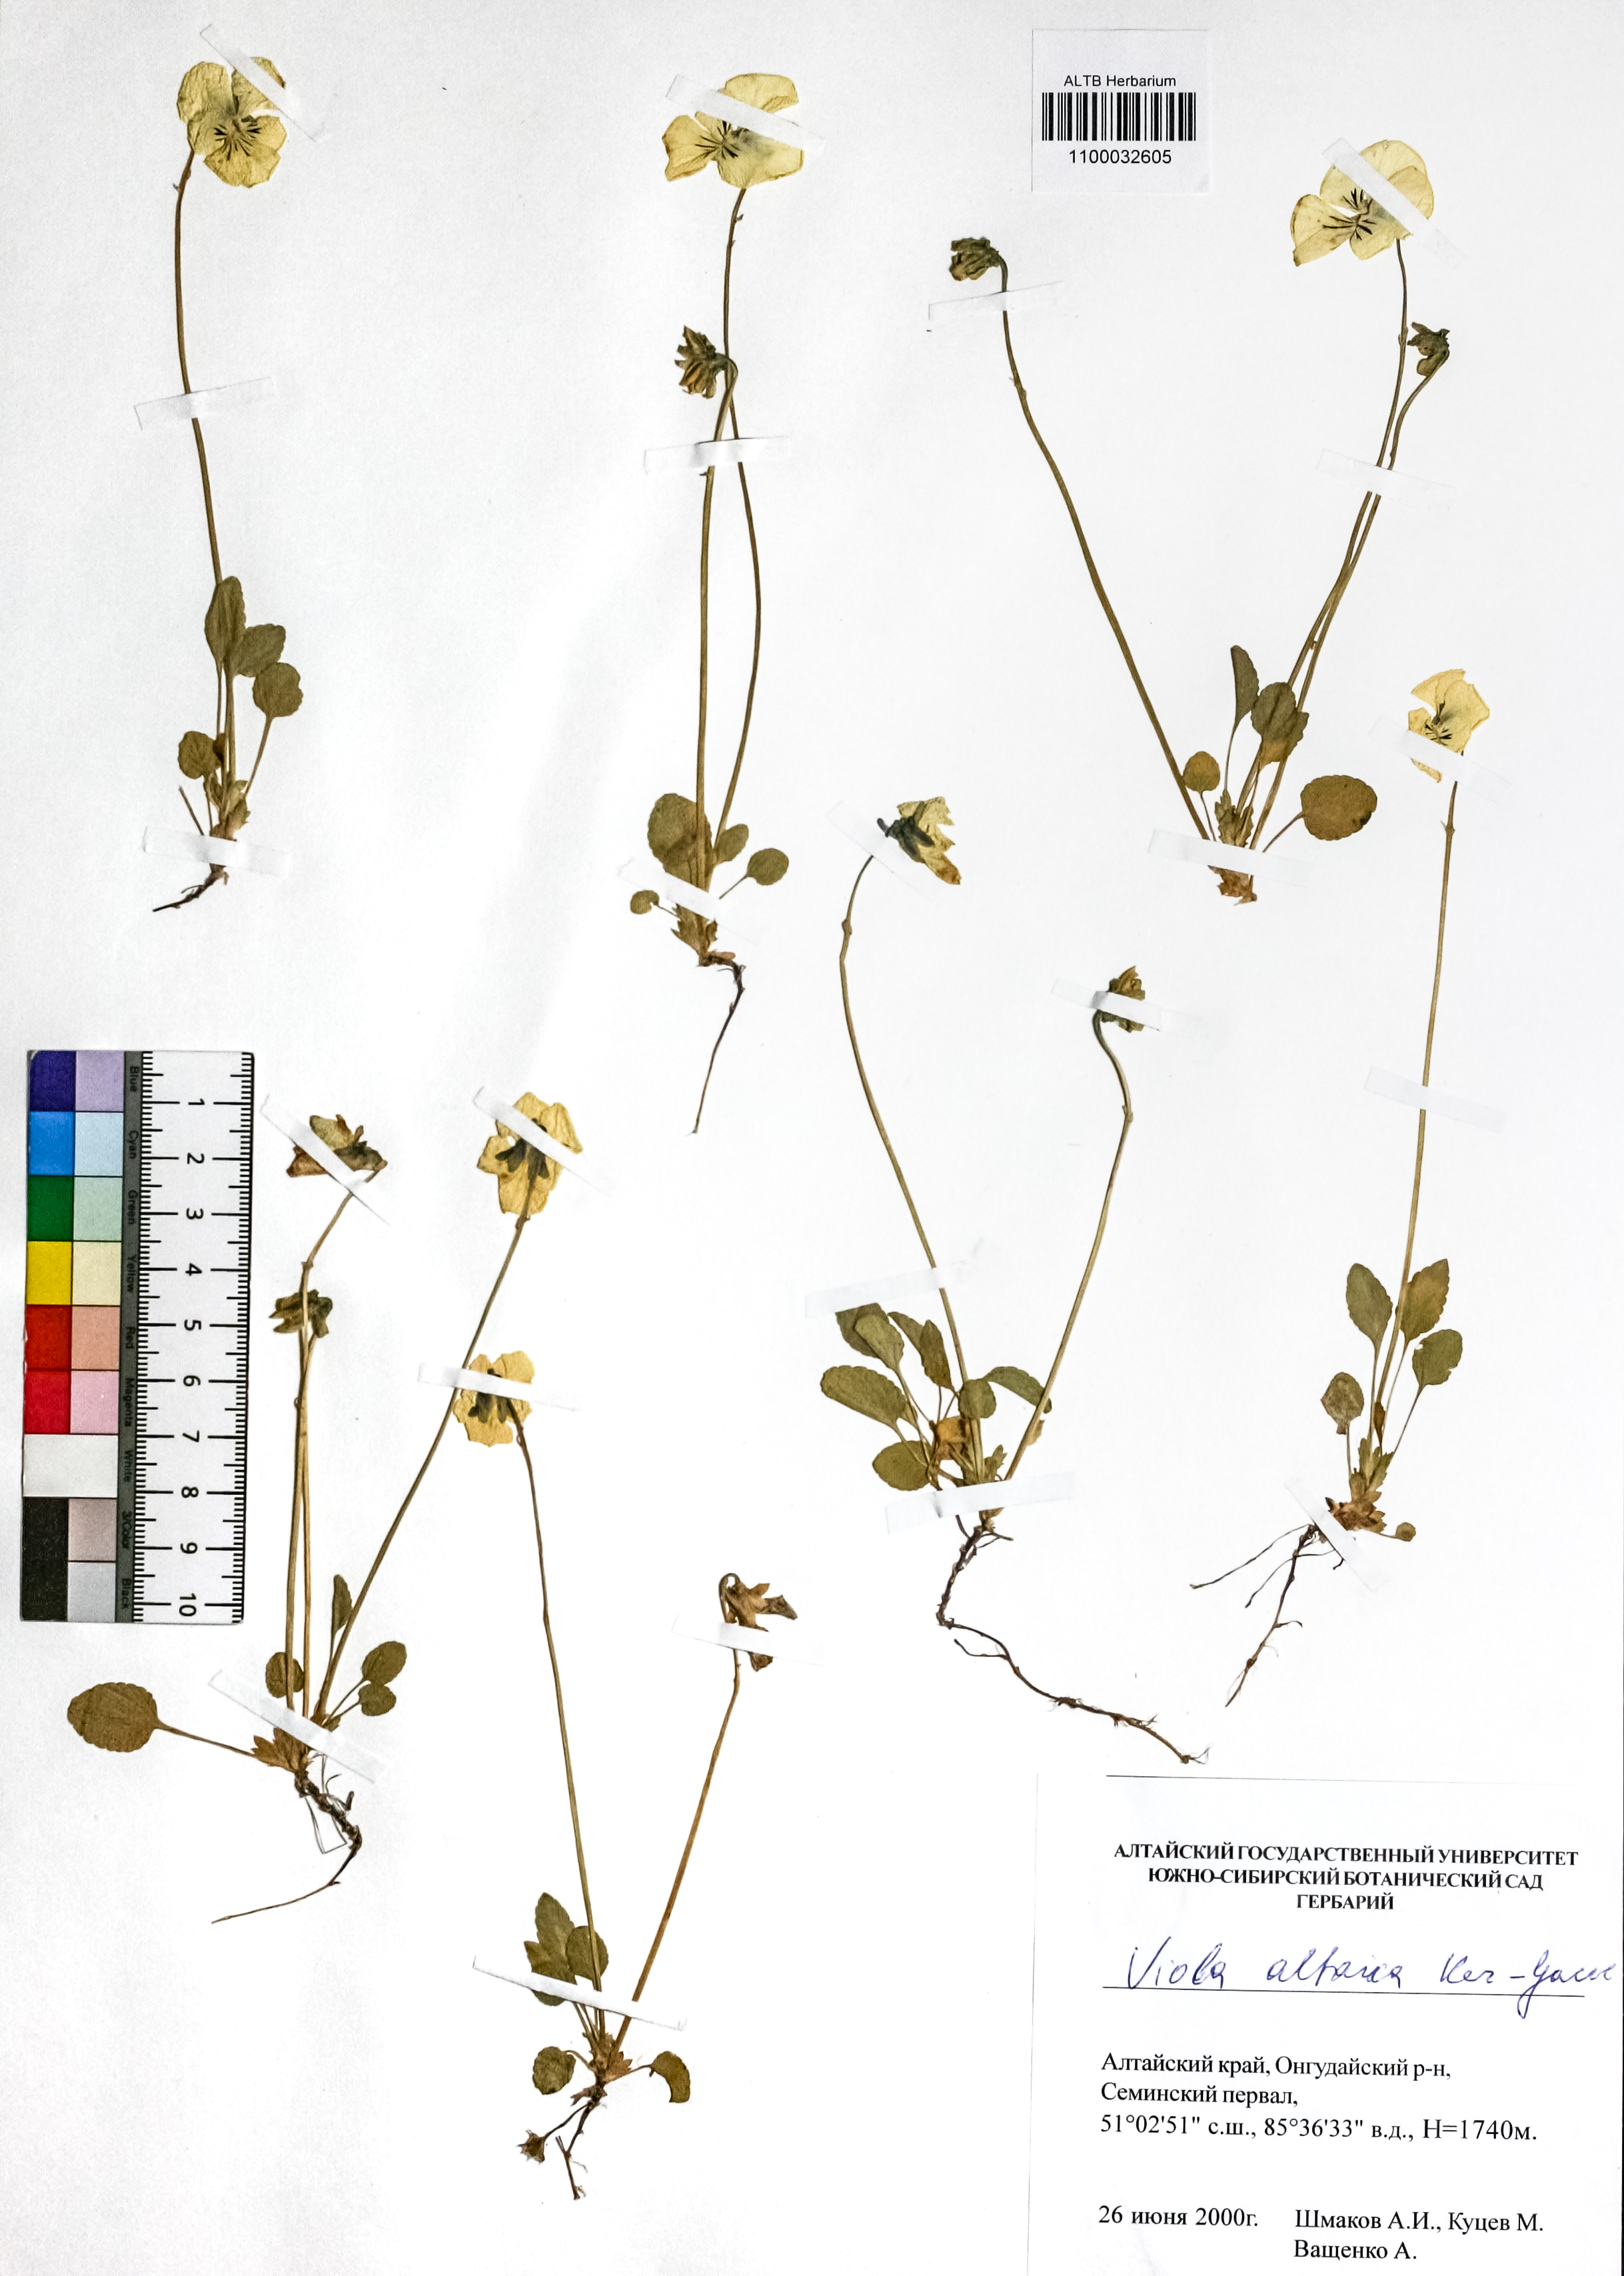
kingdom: Plantae
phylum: Tracheophyta
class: Magnoliopsida
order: Malpighiales
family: Violaceae
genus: Viola
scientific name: Viola altaica
